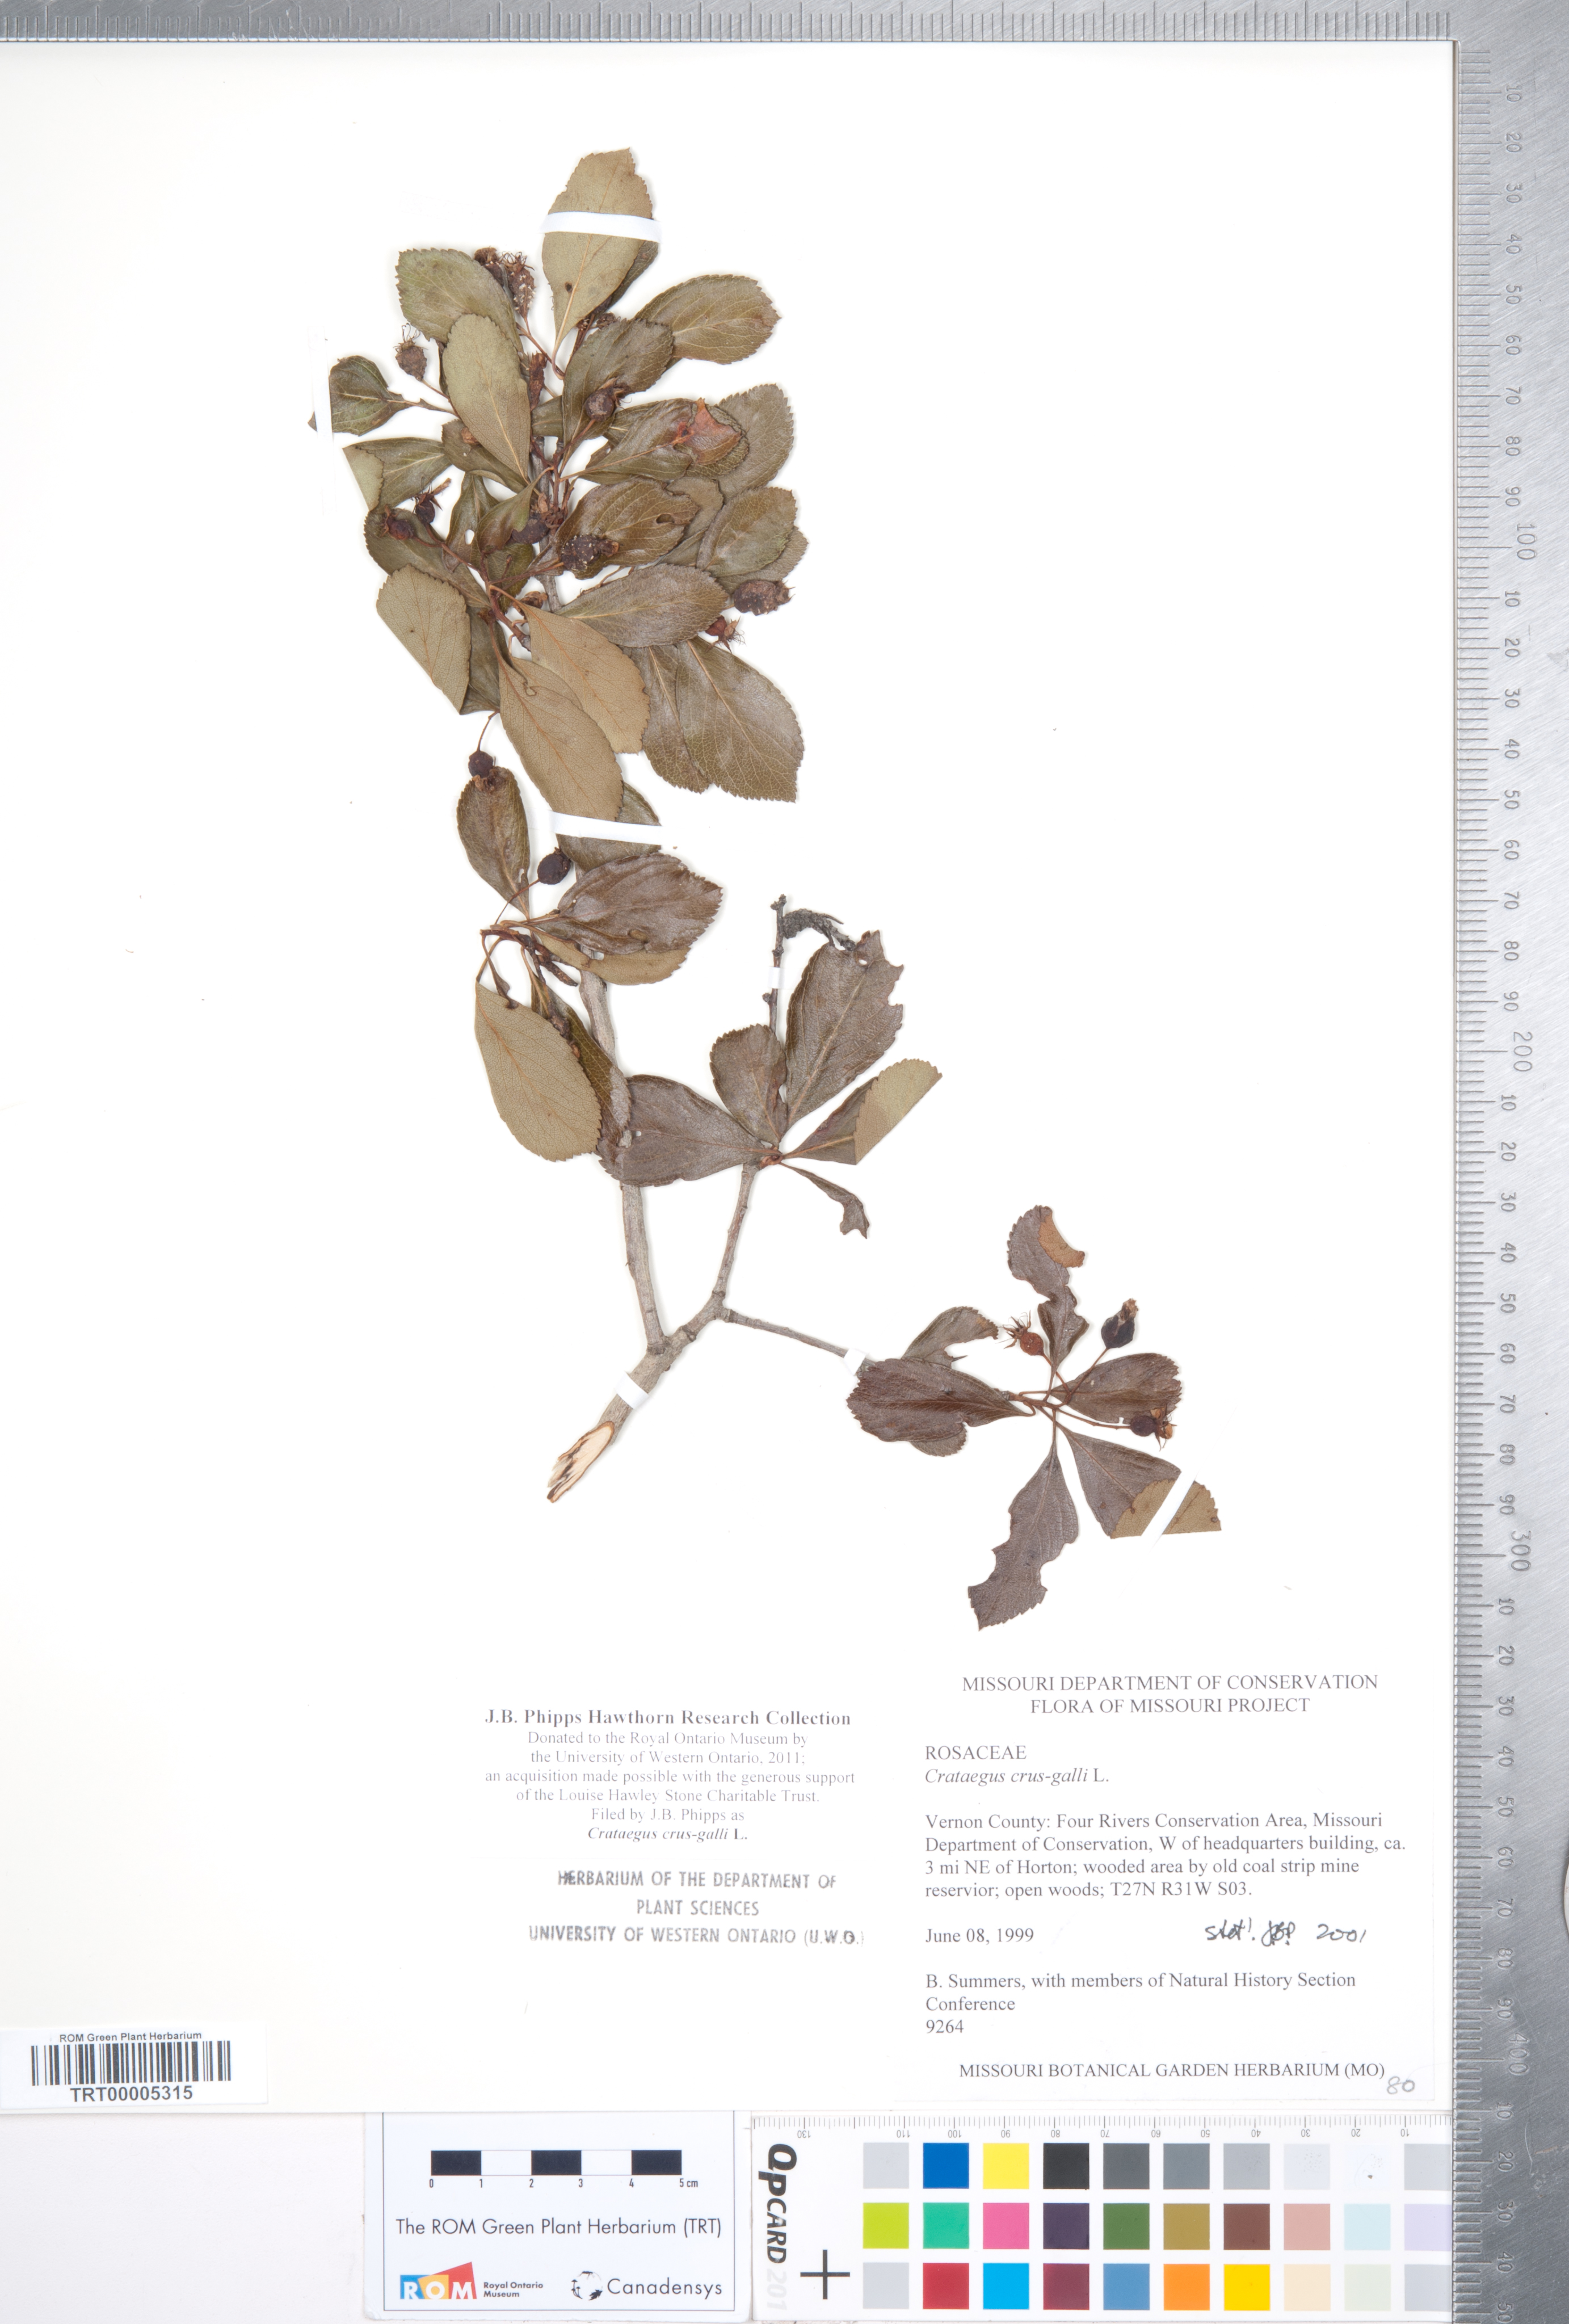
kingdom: Plantae
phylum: Tracheophyta
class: Magnoliopsida
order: Rosales
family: Rosaceae
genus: Crataegus
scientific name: Crataegus crus-galli
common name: Cockspurthorn
